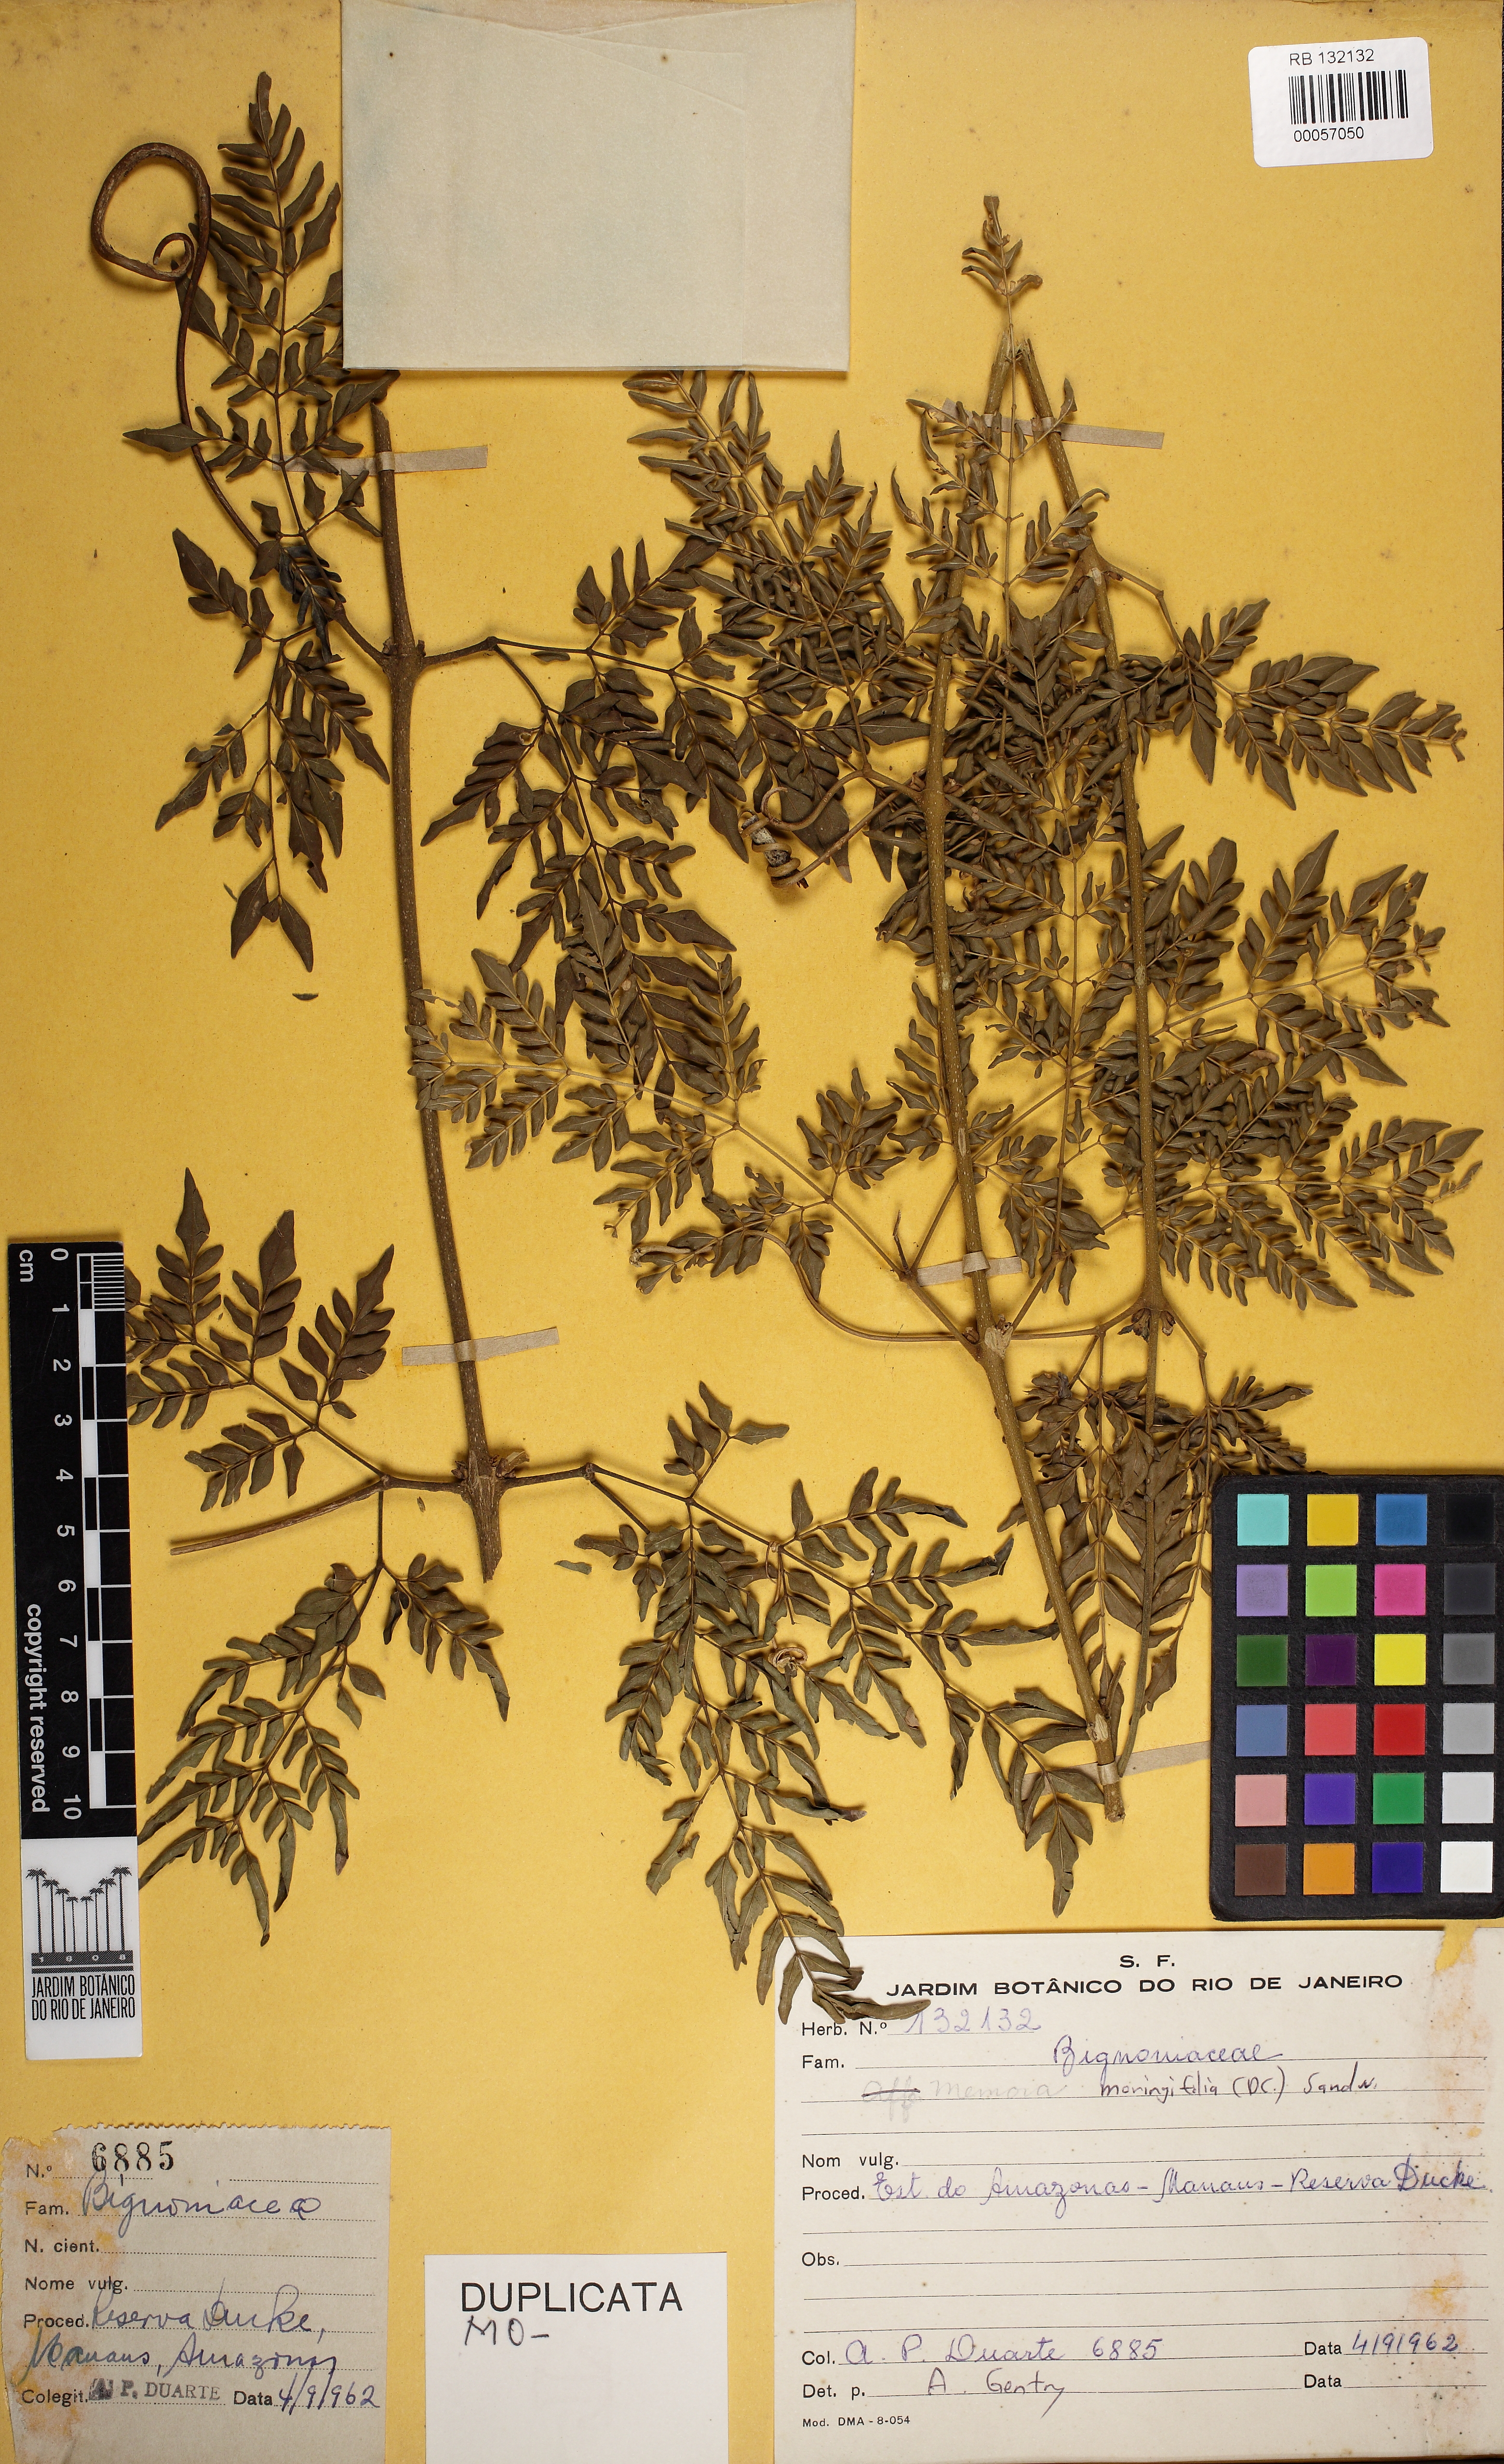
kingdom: Plantae
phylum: Tracheophyta
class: Magnoliopsida
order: Lamiales
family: Bignoniaceae
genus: Adenocalymma
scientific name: Adenocalymma moringifolium
